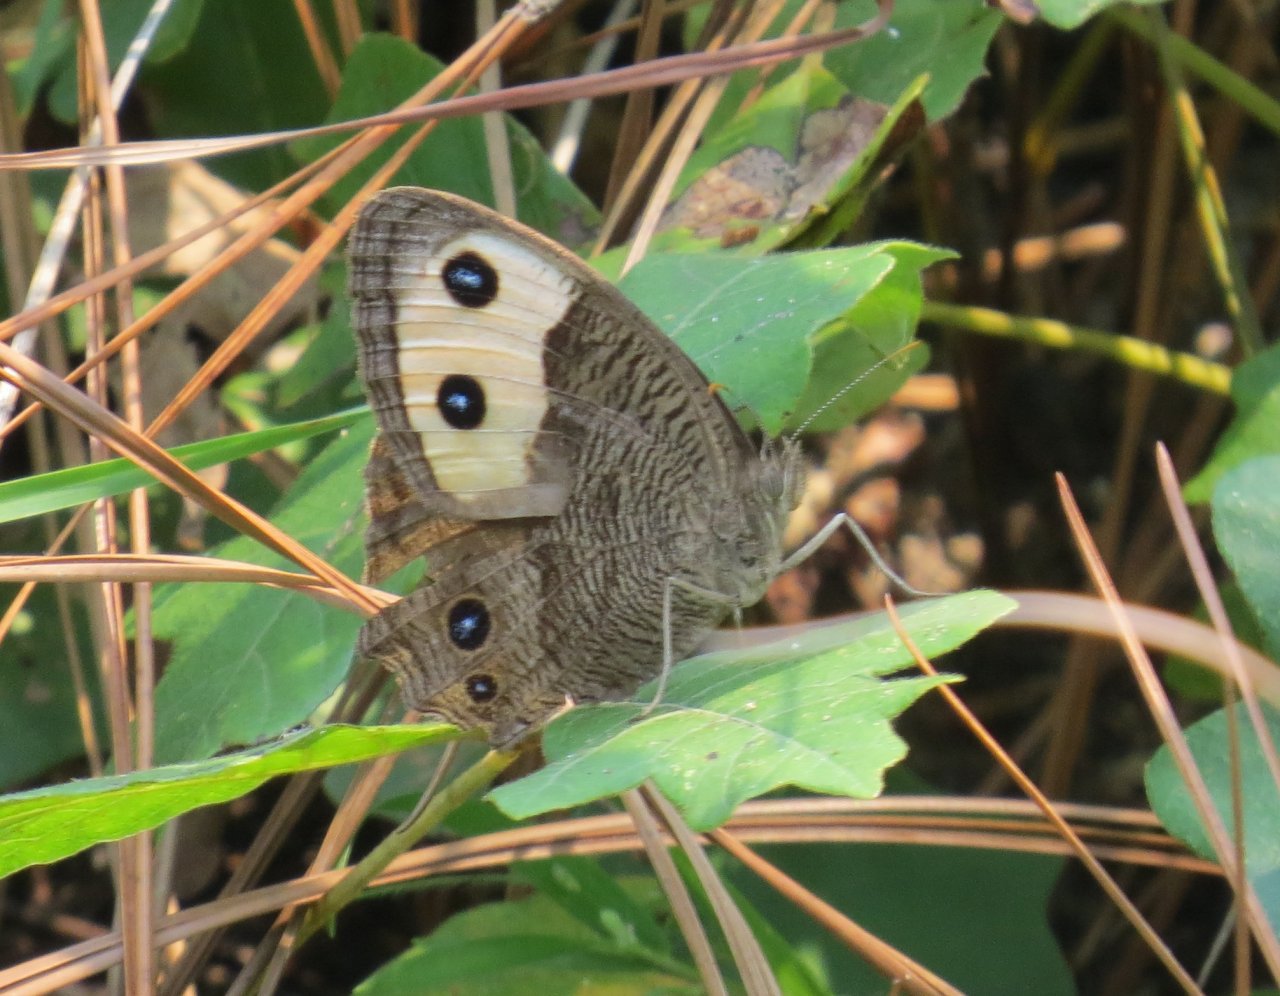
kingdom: Animalia
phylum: Arthropoda
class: Insecta
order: Lepidoptera
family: Nymphalidae
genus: Cercyonis
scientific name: Cercyonis pegala
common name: Common Wood-Nymph
